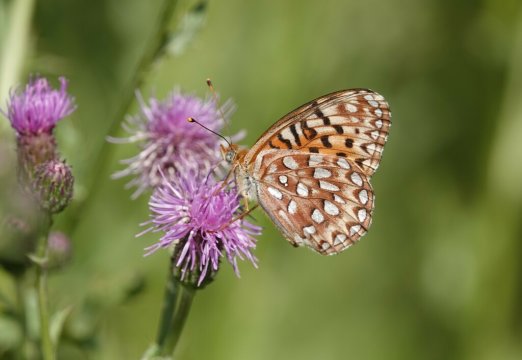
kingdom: Animalia
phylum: Arthropoda
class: Insecta
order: Lepidoptera
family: Nymphalidae
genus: Speyeria
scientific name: Speyeria
